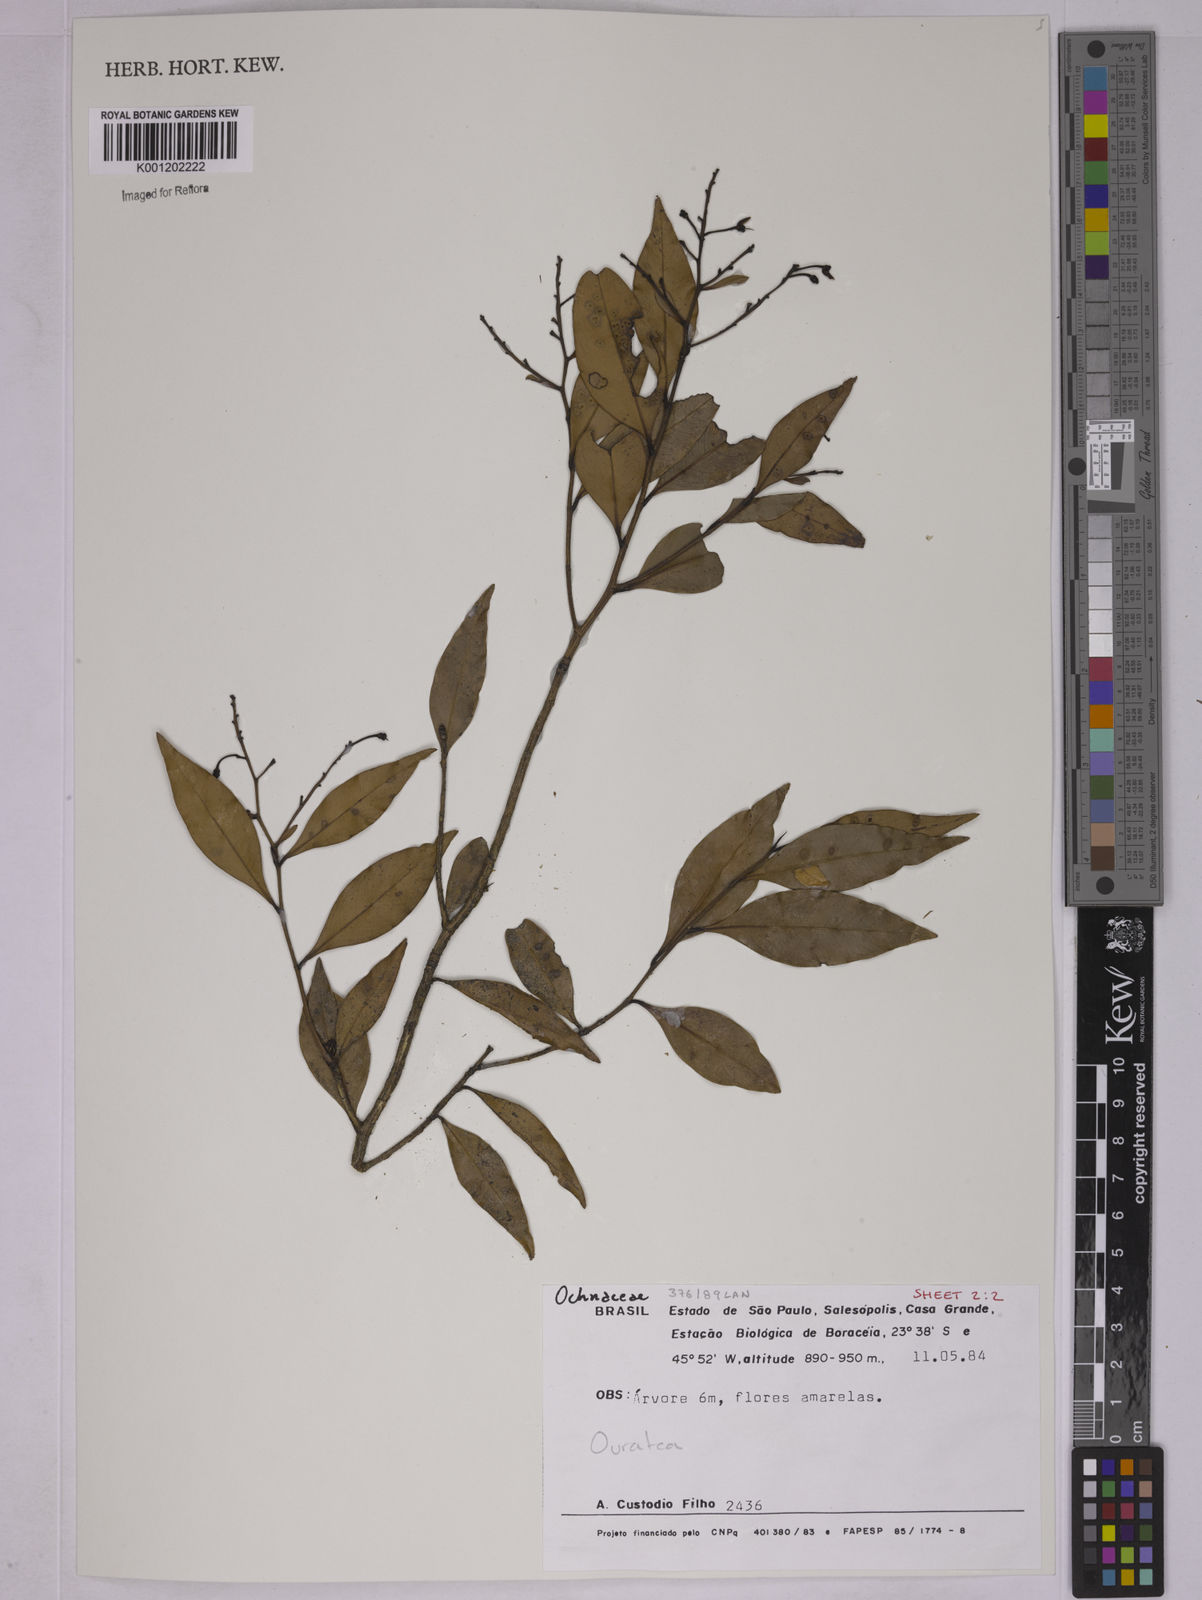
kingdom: Plantae
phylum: Tracheophyta
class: Magnoliopsida
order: Malpighiales
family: Ochnaceae
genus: Ouratea
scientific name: Ouratea
